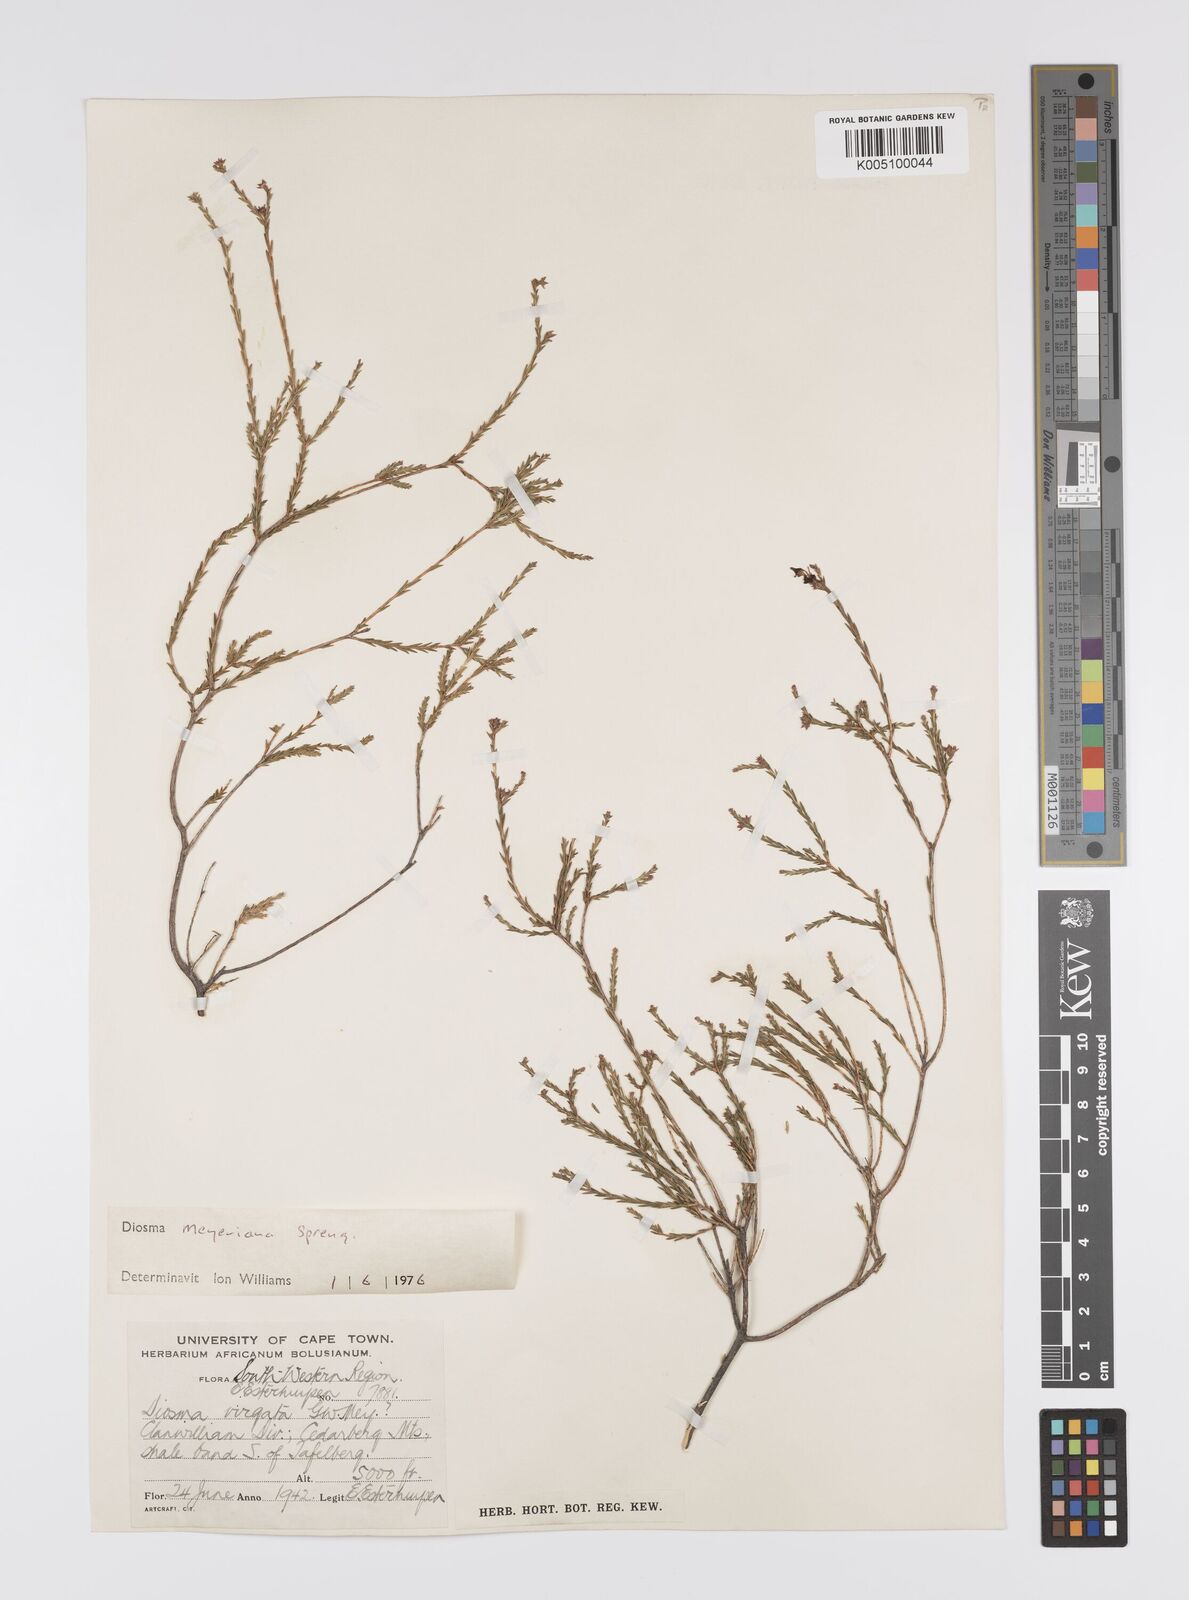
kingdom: Plantae
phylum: Tracheophyta
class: Magnoliopsida
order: Sapindales
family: Rutaceae
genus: Agathosma
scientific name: Agathosma virgata
